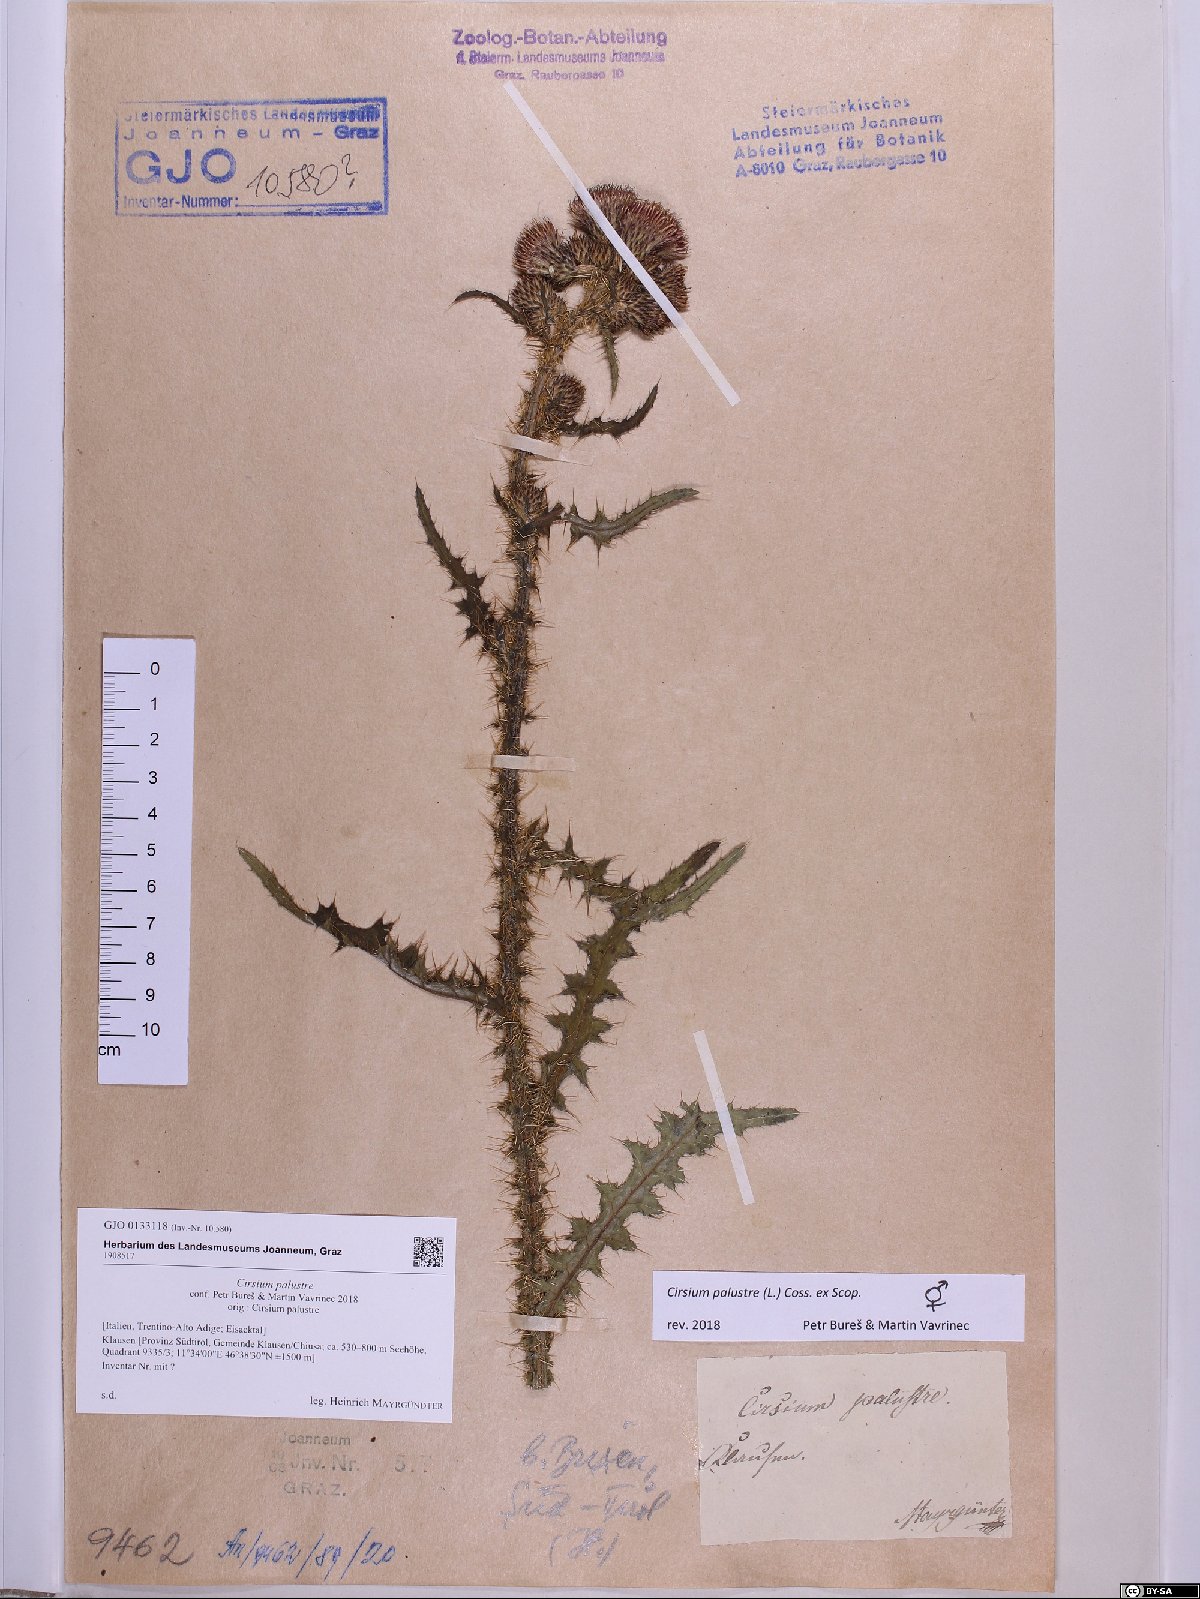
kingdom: Plantae
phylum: Tracheophyta
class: Magnoliopsida
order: Asterales
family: Asteraceae
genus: Cirsium
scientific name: Cirsium palustre
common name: Marsh thistle
